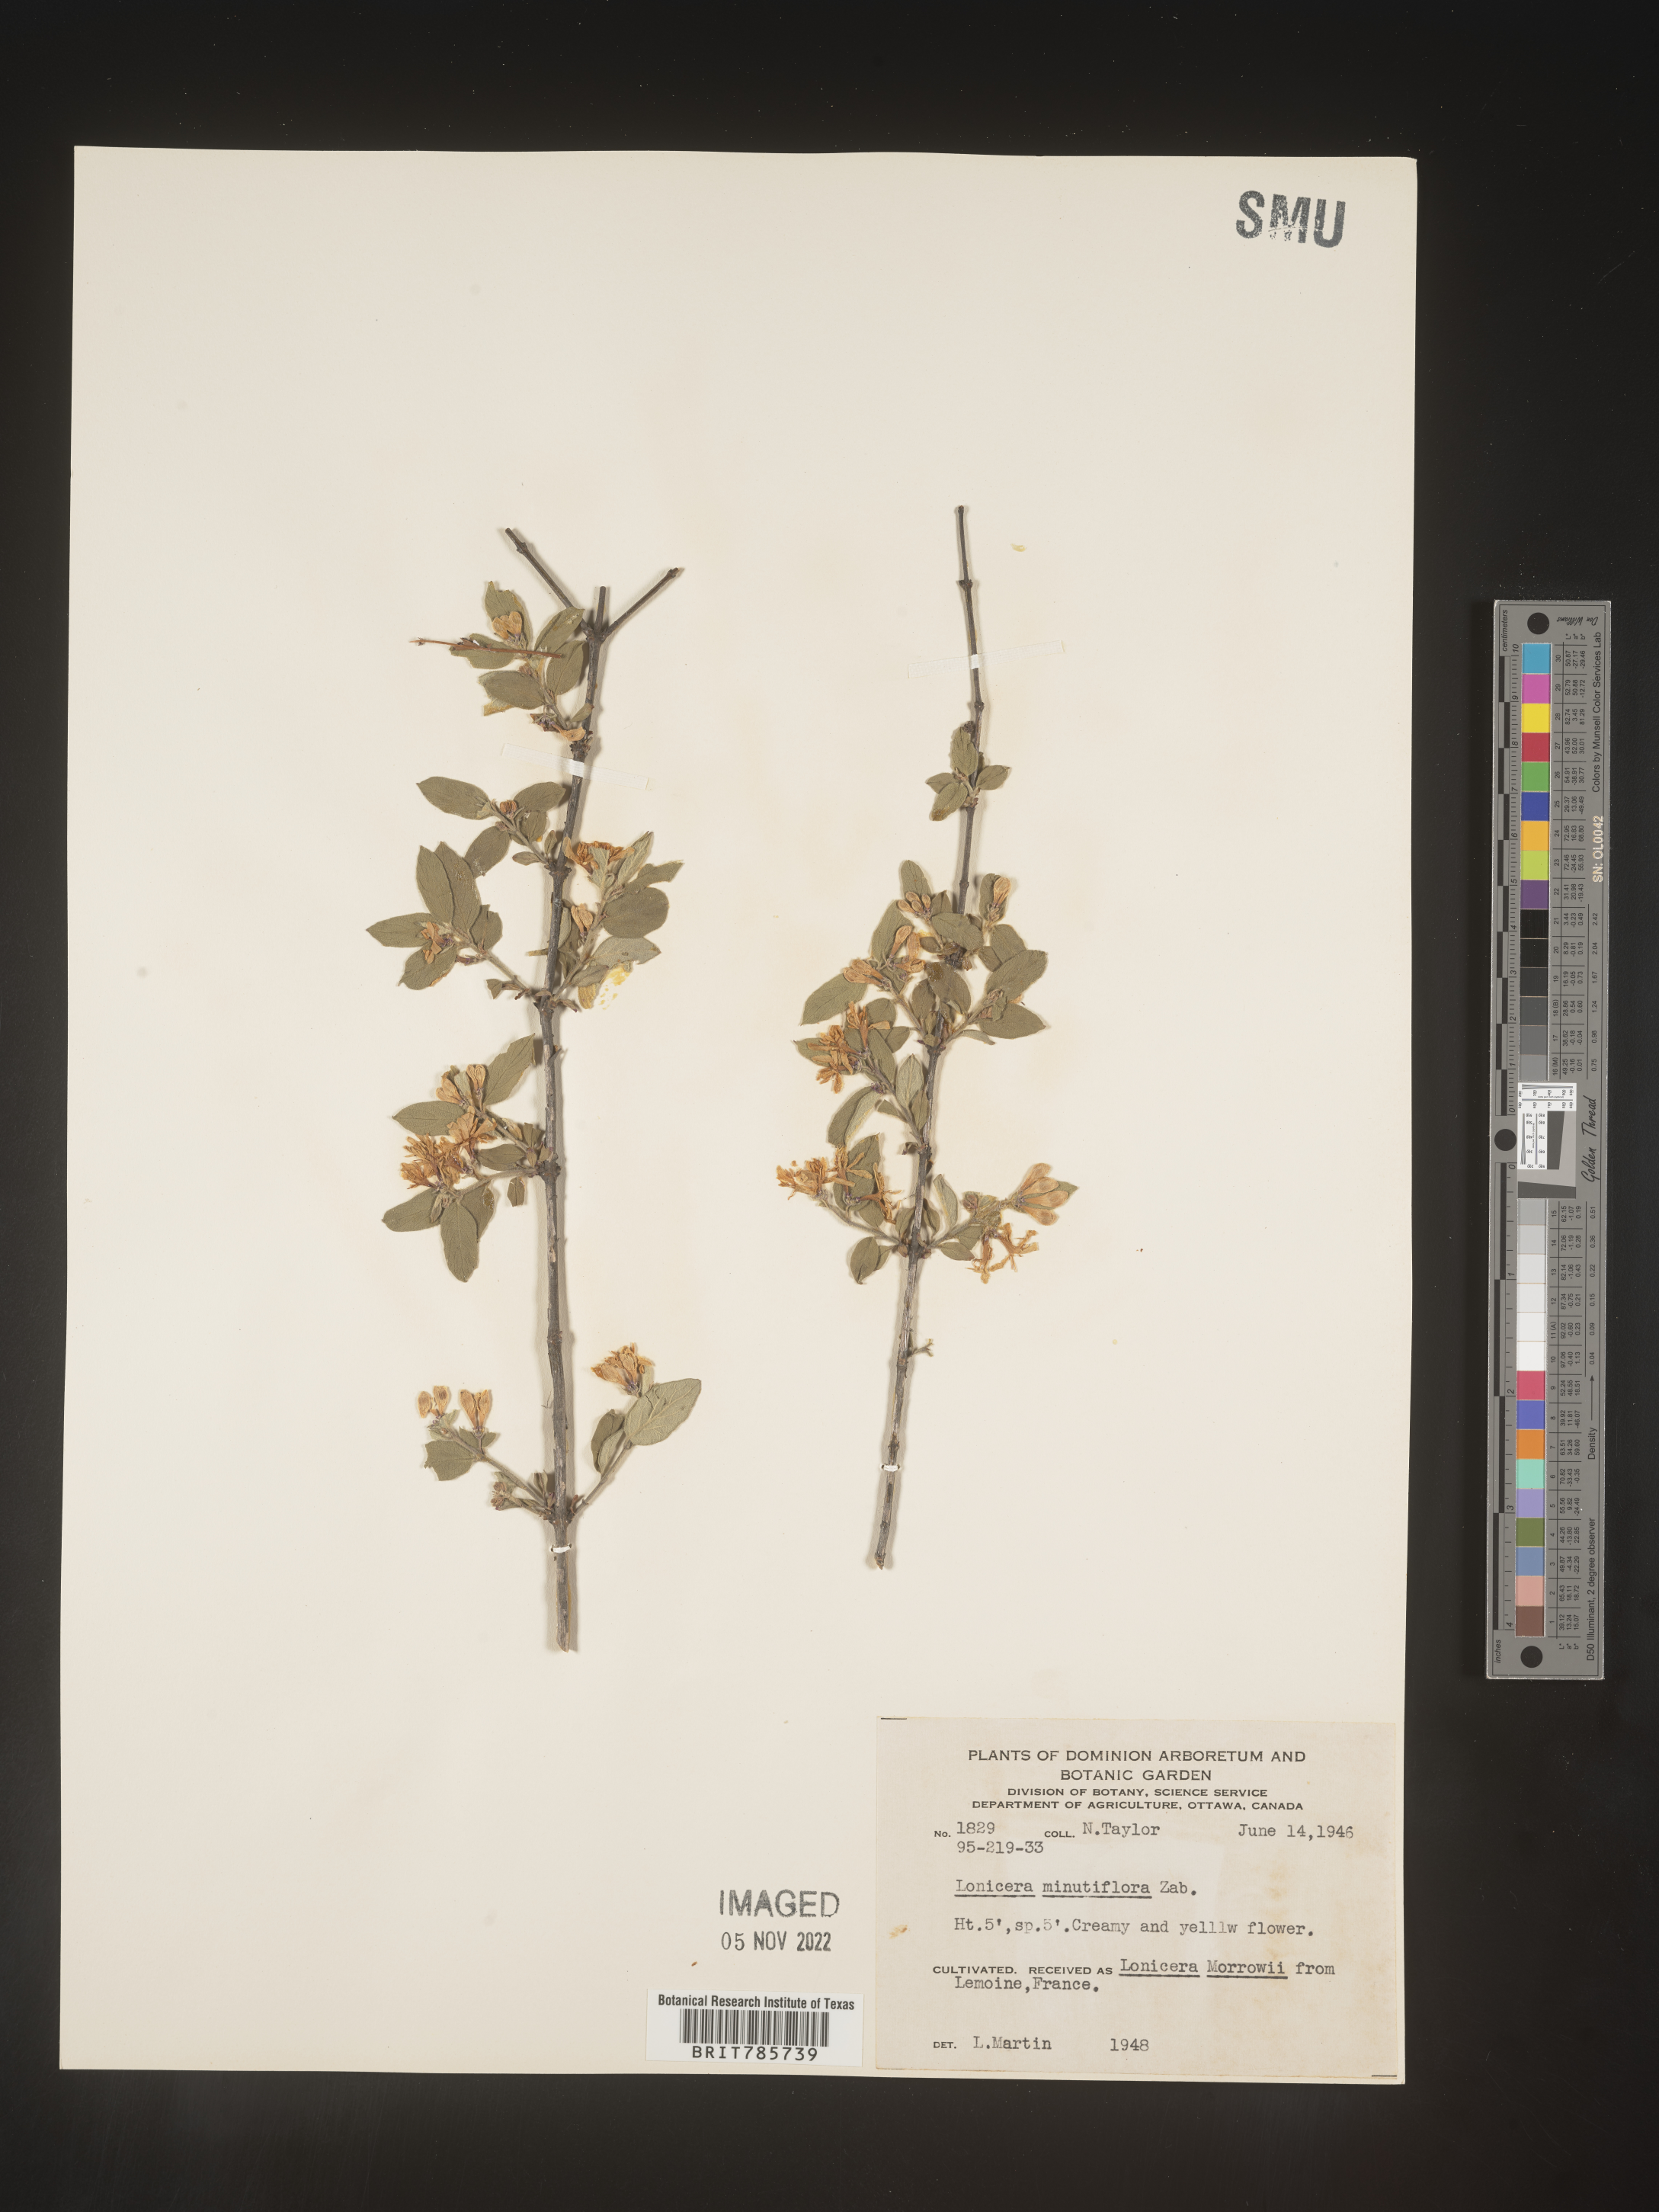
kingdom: Plantae
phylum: Tracheophyta
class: Magnoliopsida
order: Dipsacales
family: Caprifoliaceae
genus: Lonicera
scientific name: Lonicera
